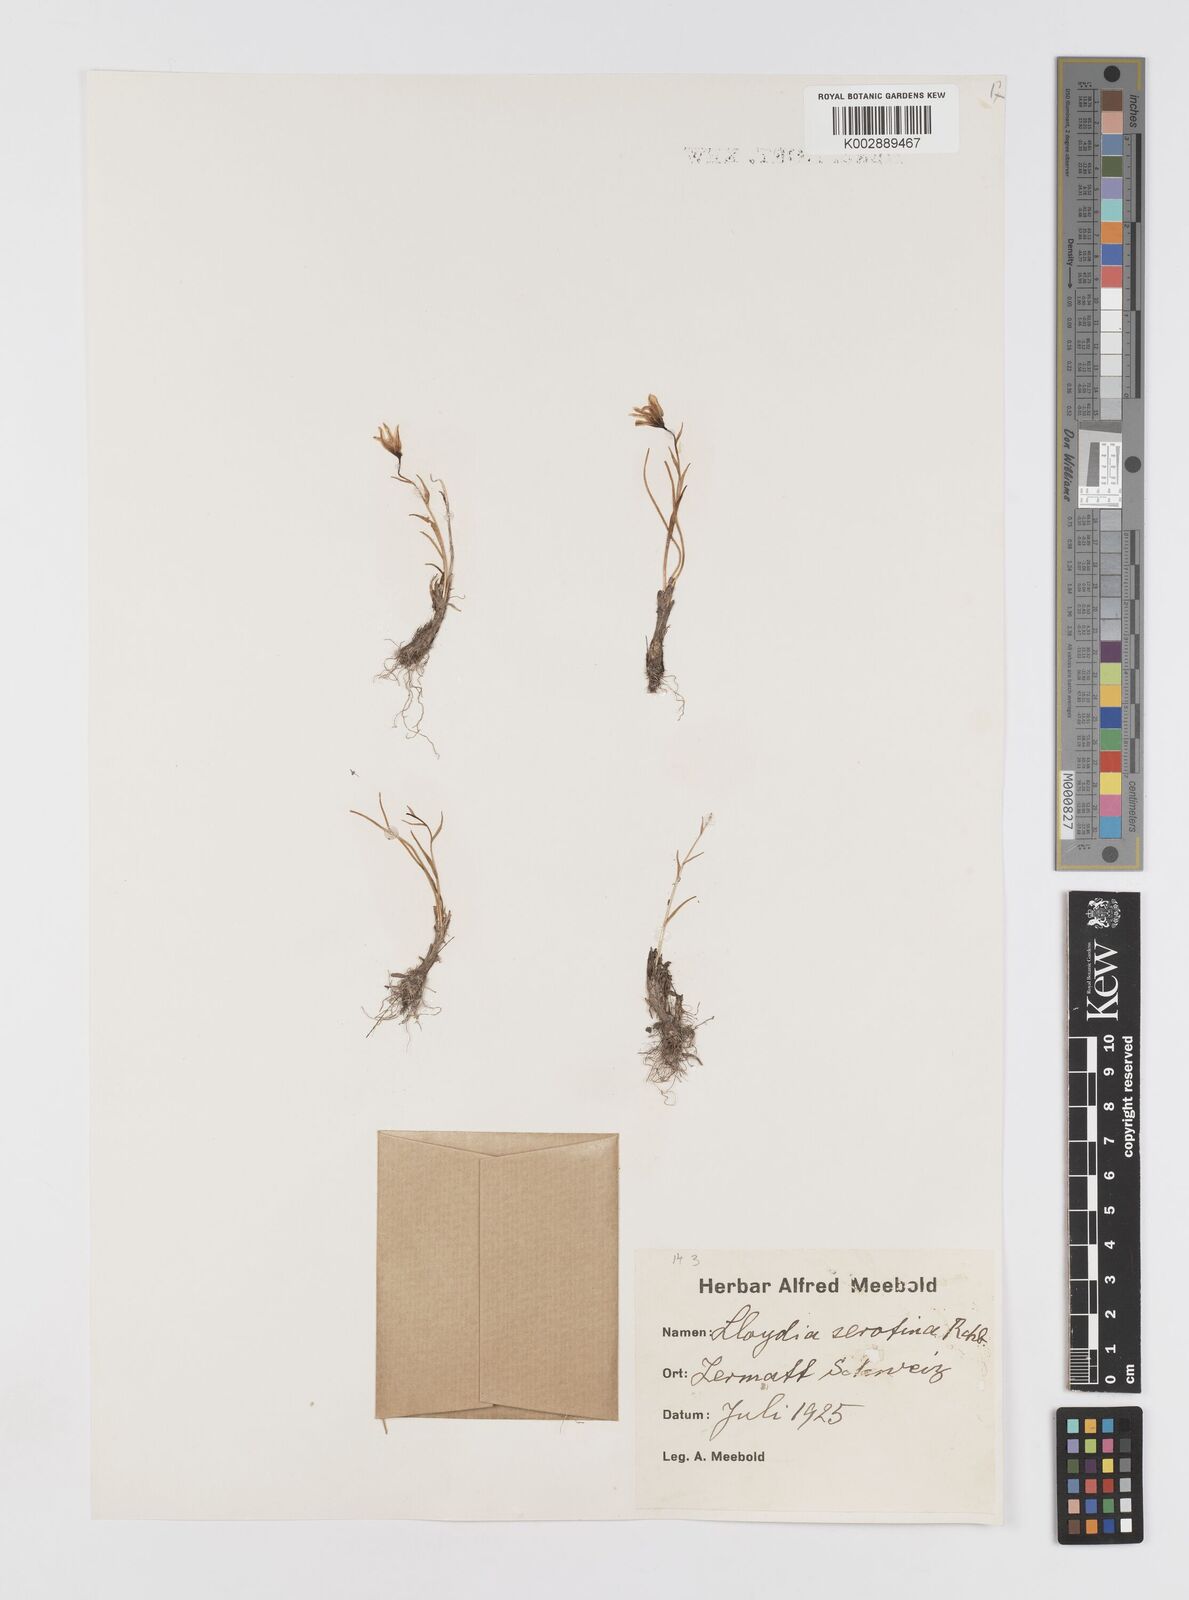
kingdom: Plantae
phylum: Tracheophyta
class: Liliopsida
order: Liliales
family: Liliaceae
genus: Gagea
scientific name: Gagea
